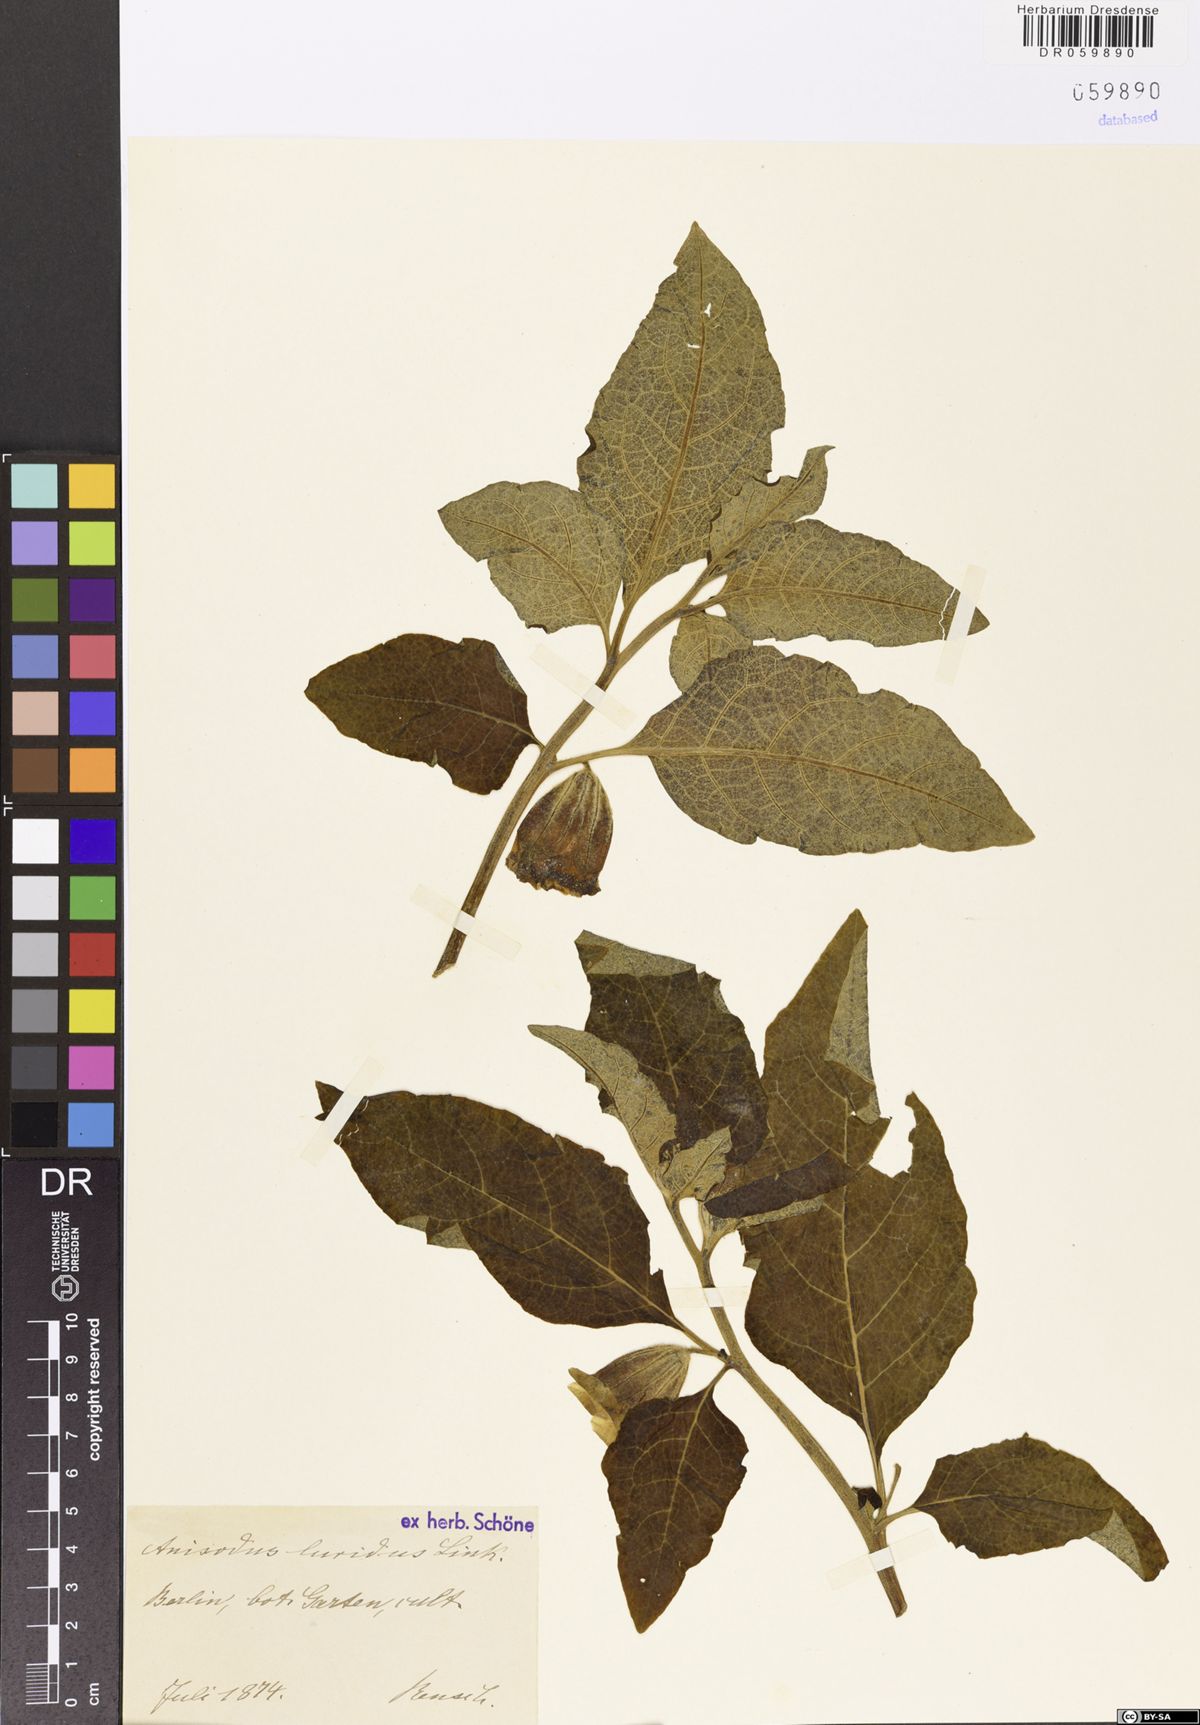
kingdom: Plantae
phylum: Tracheophyta
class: Magnoliopsida
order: Solanales
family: Solanaceae
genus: Anisodus
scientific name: Anisodus stramoniifolius
